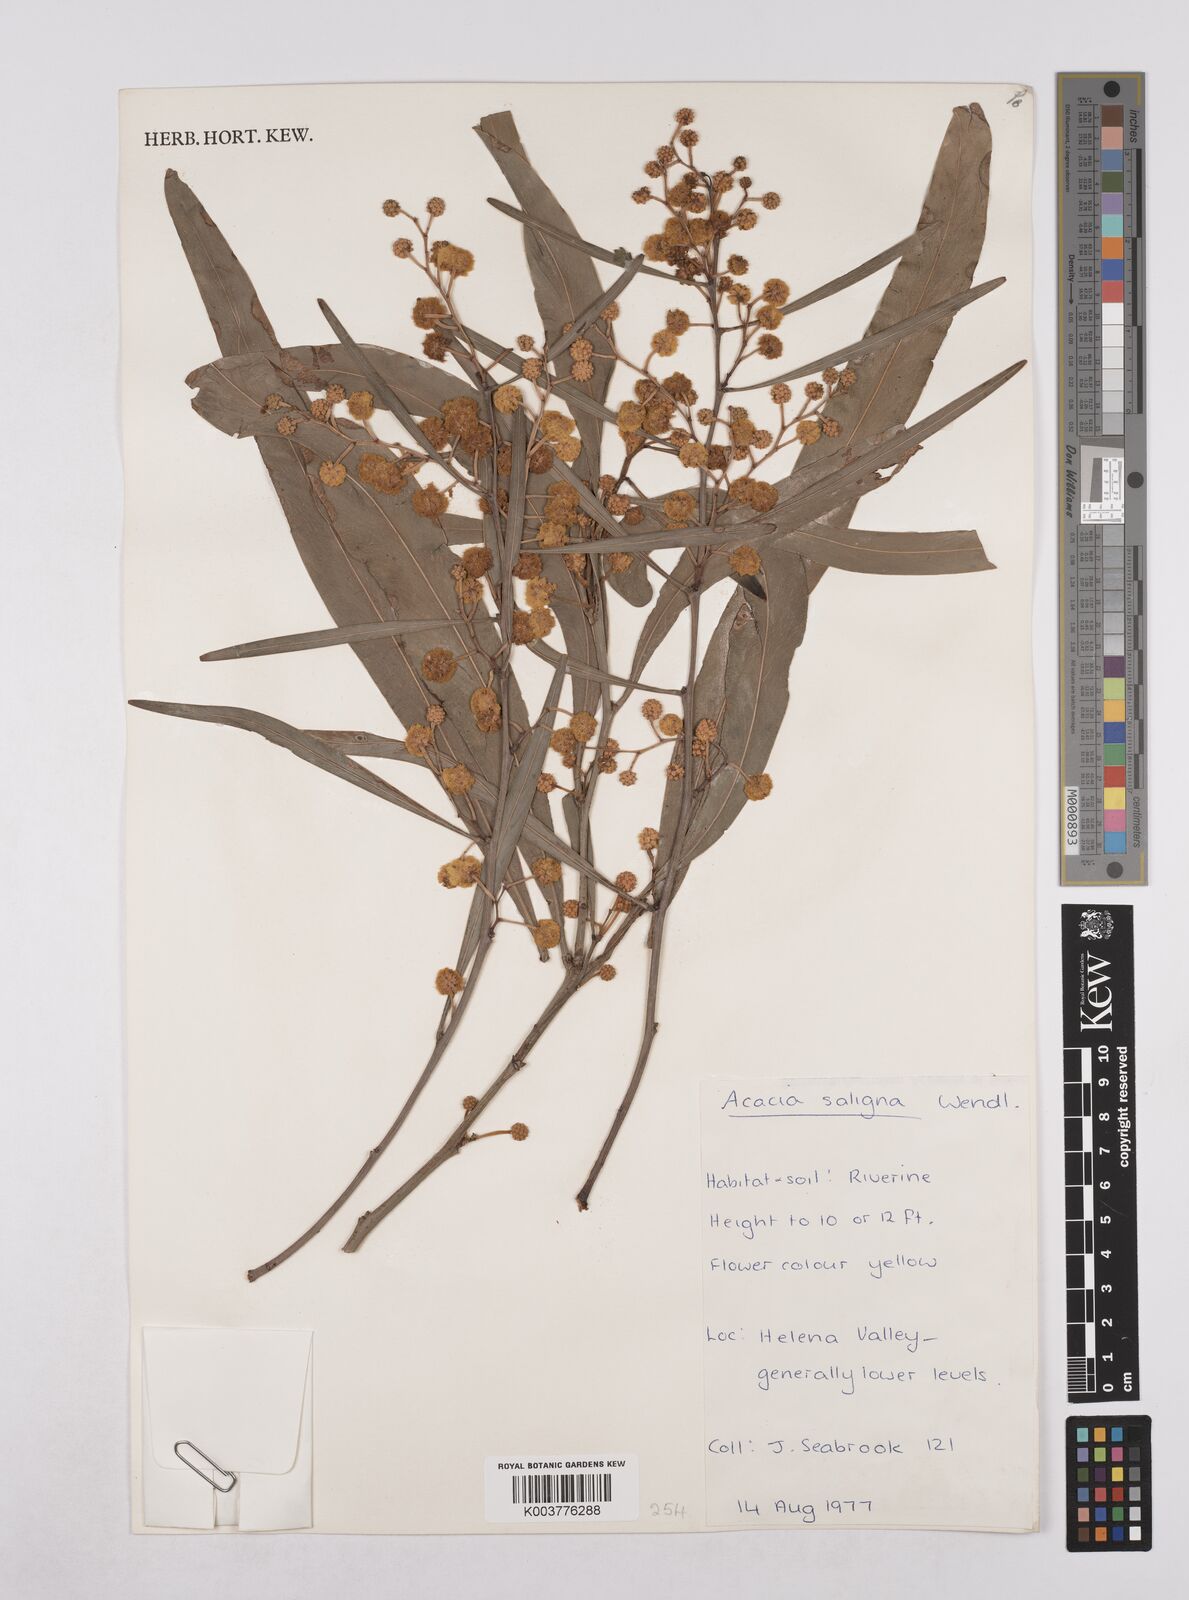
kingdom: Plantae
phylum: Tracheophyta
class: Magnoliopsida
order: Fabales
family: Fabaceae
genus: Acacia
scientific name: Acacia saligna
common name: Orange wattle
